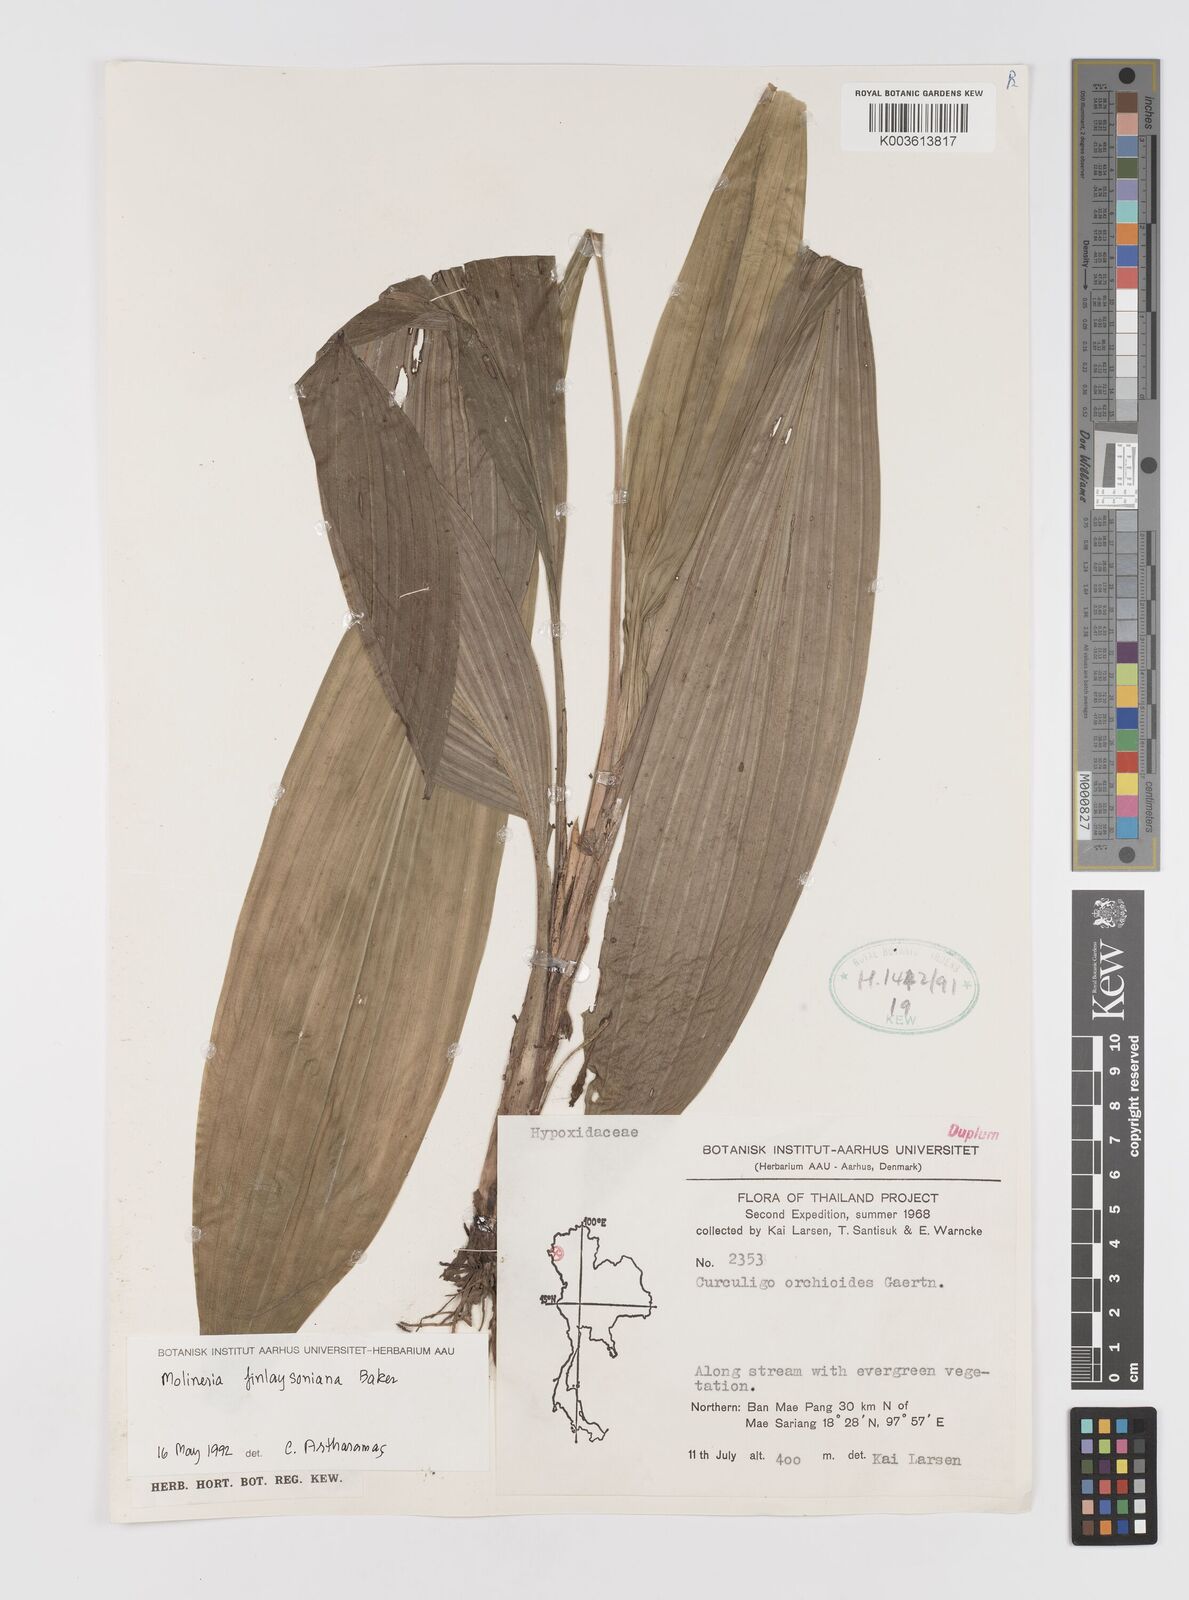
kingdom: Plantae
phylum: Tracheophyta
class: Liliopsida
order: Asparagales
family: Hypoxidaceae
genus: Curculigo
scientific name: Curculigo trichocarpa
